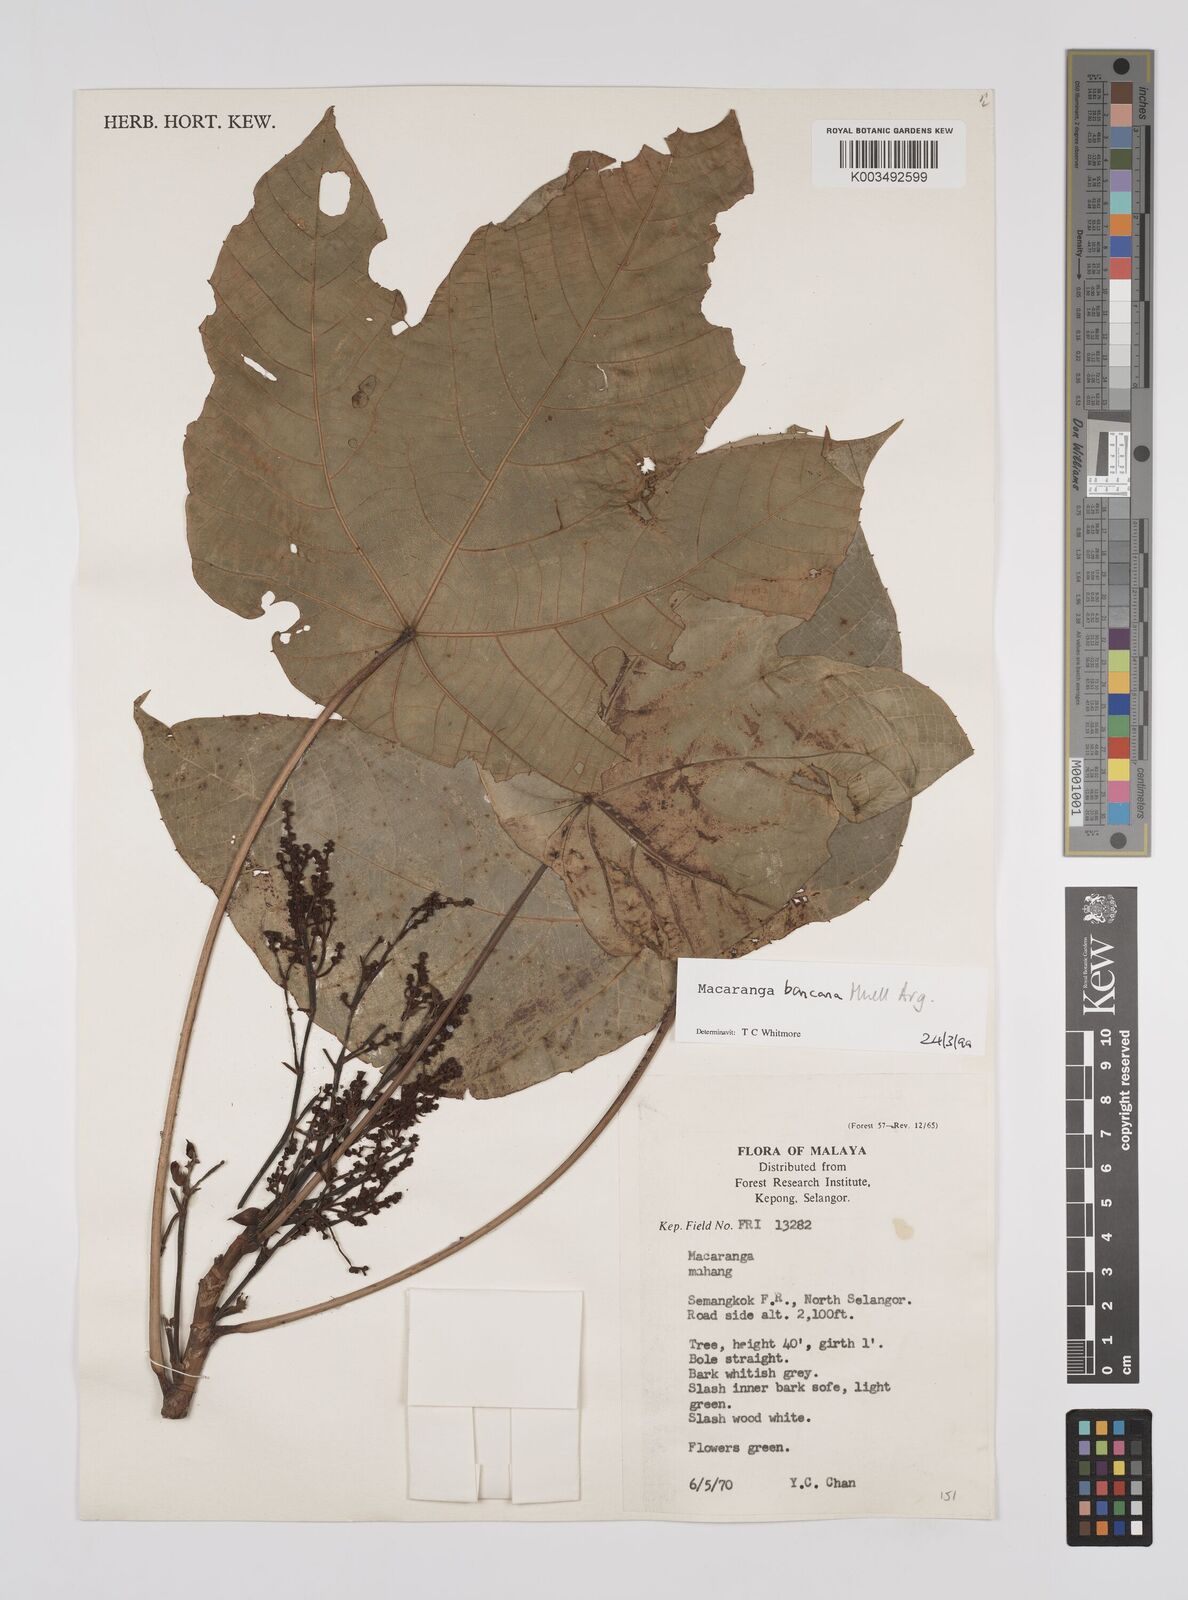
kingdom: Plantae
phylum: Tracheophyta
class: Magnoliopsida
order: Malpighiales
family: Euphorbiaceae
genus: Macaranga
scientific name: Macaranga bancana
